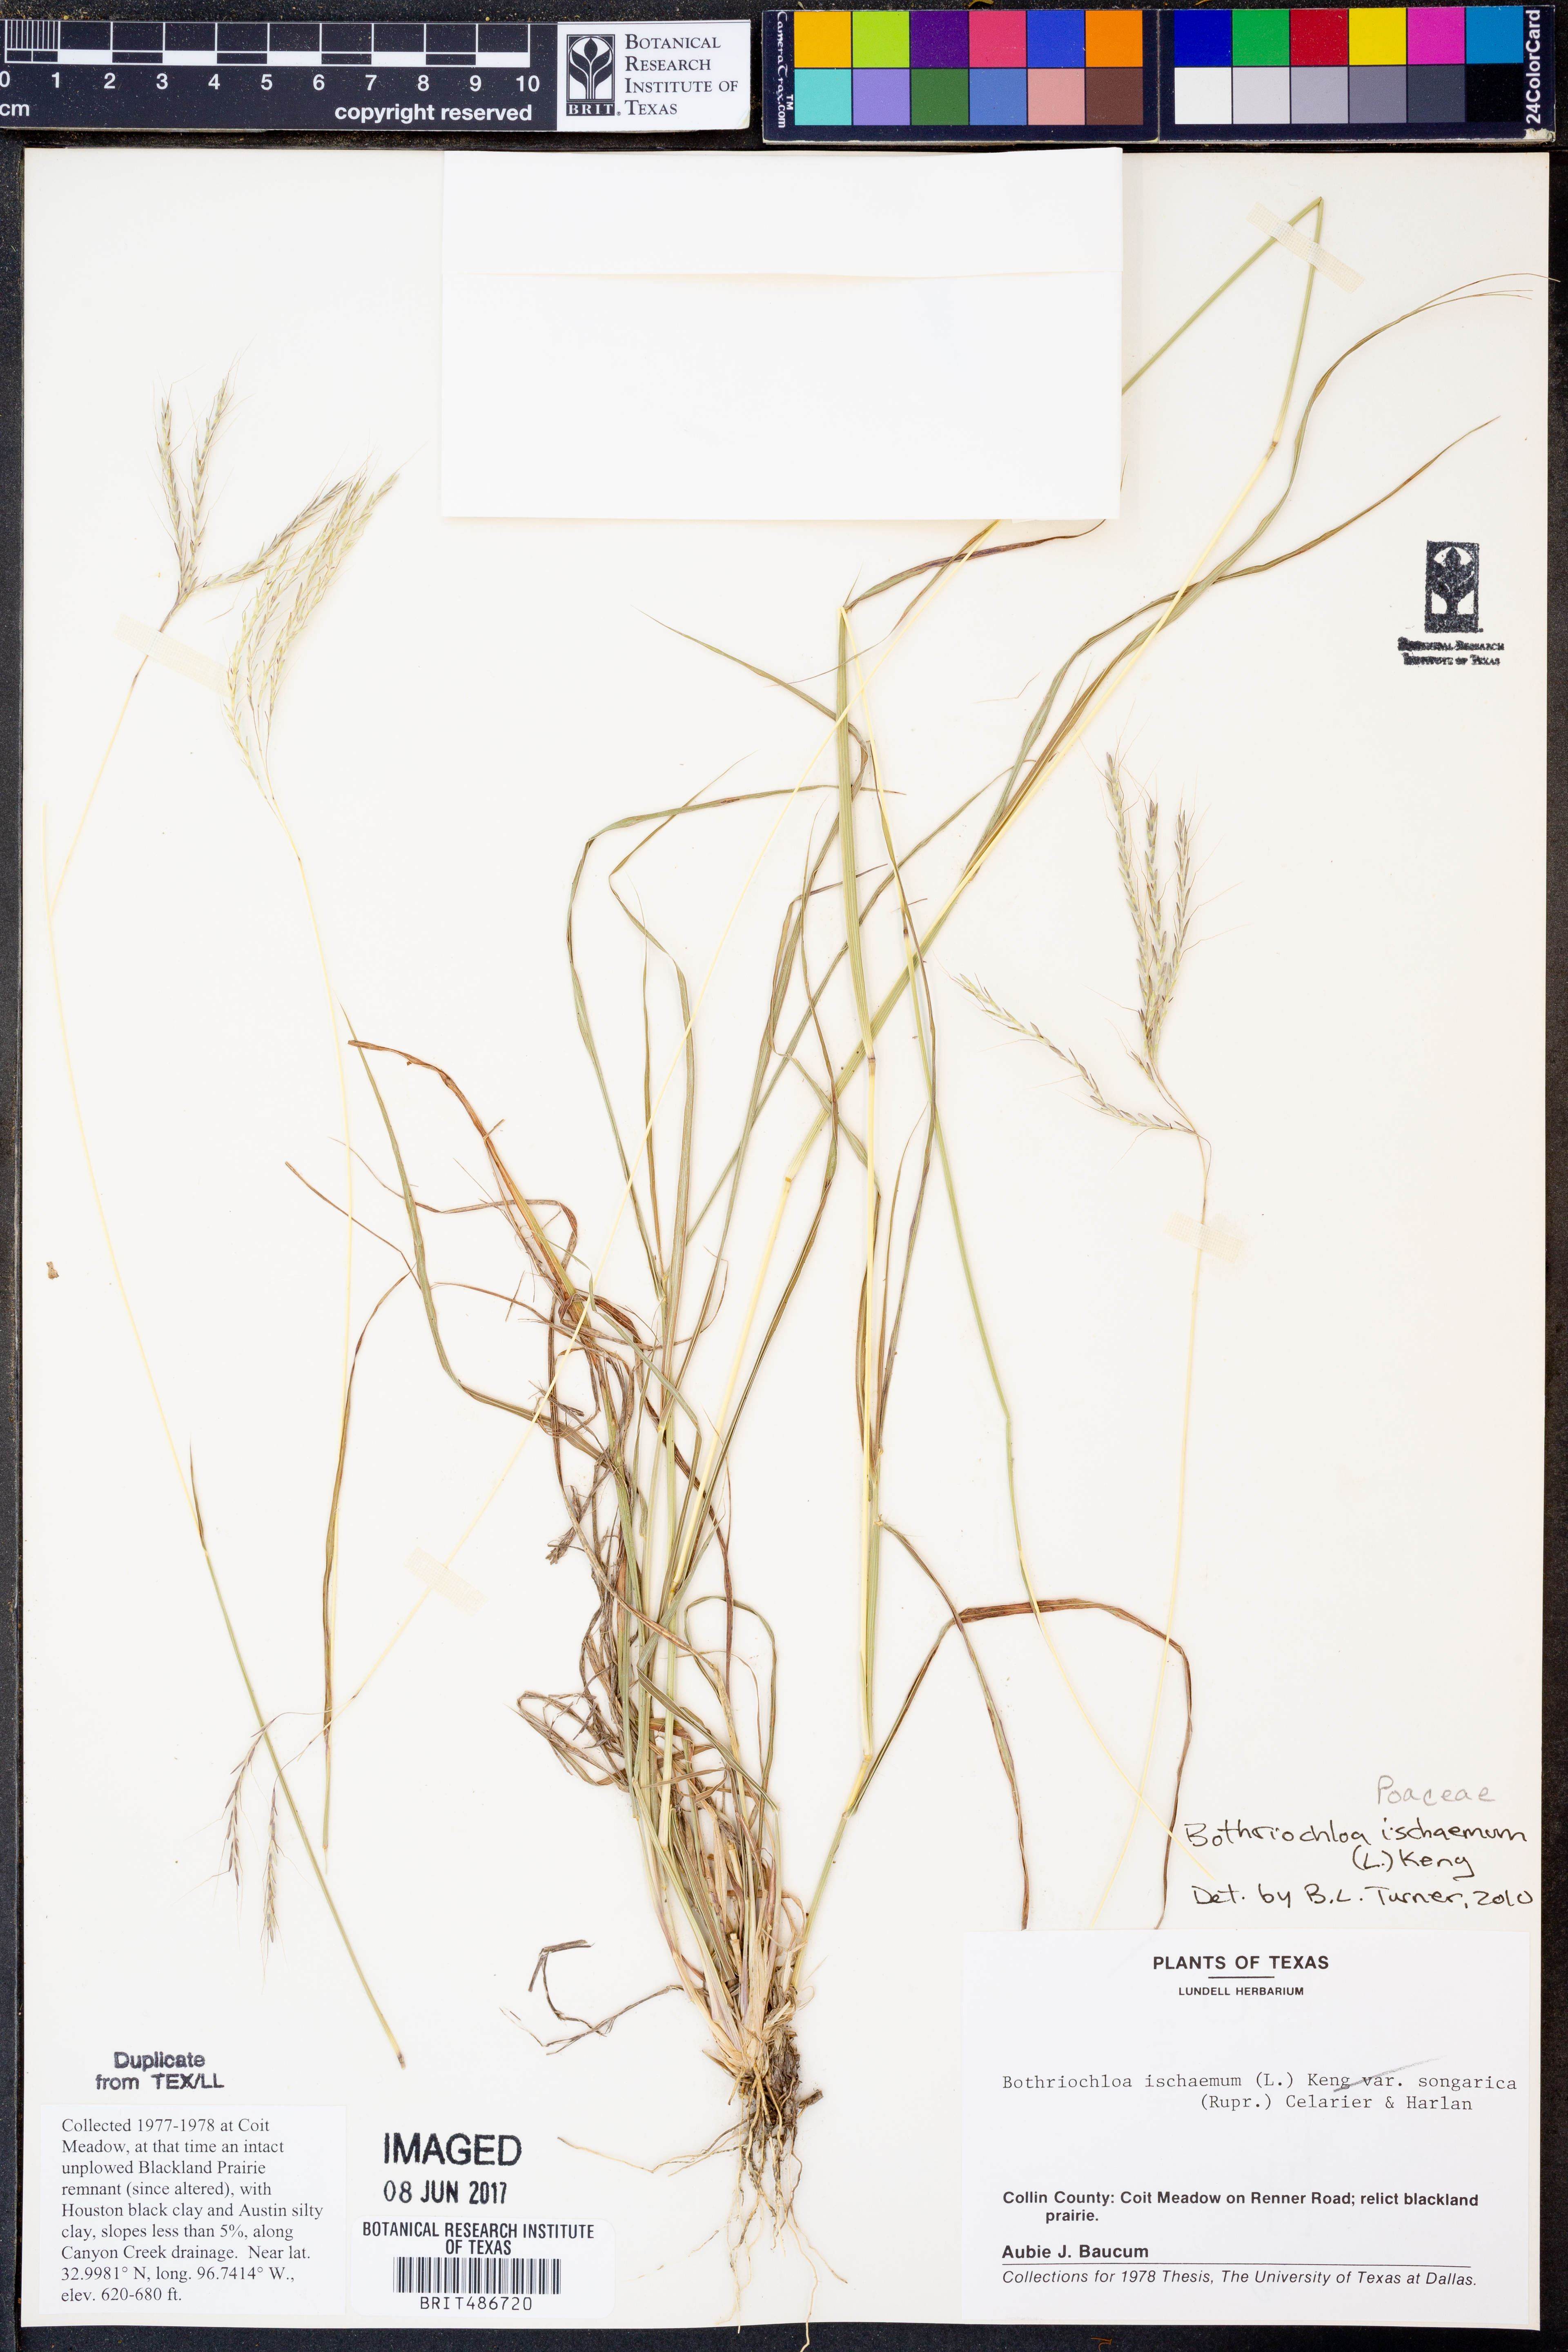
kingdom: Plantae
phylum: Tracheophyta
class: Liliopsida
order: Poales
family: Poaceae
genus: Bothriochloa
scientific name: Bothriochloa ischaemum
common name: Yellow bluestem
